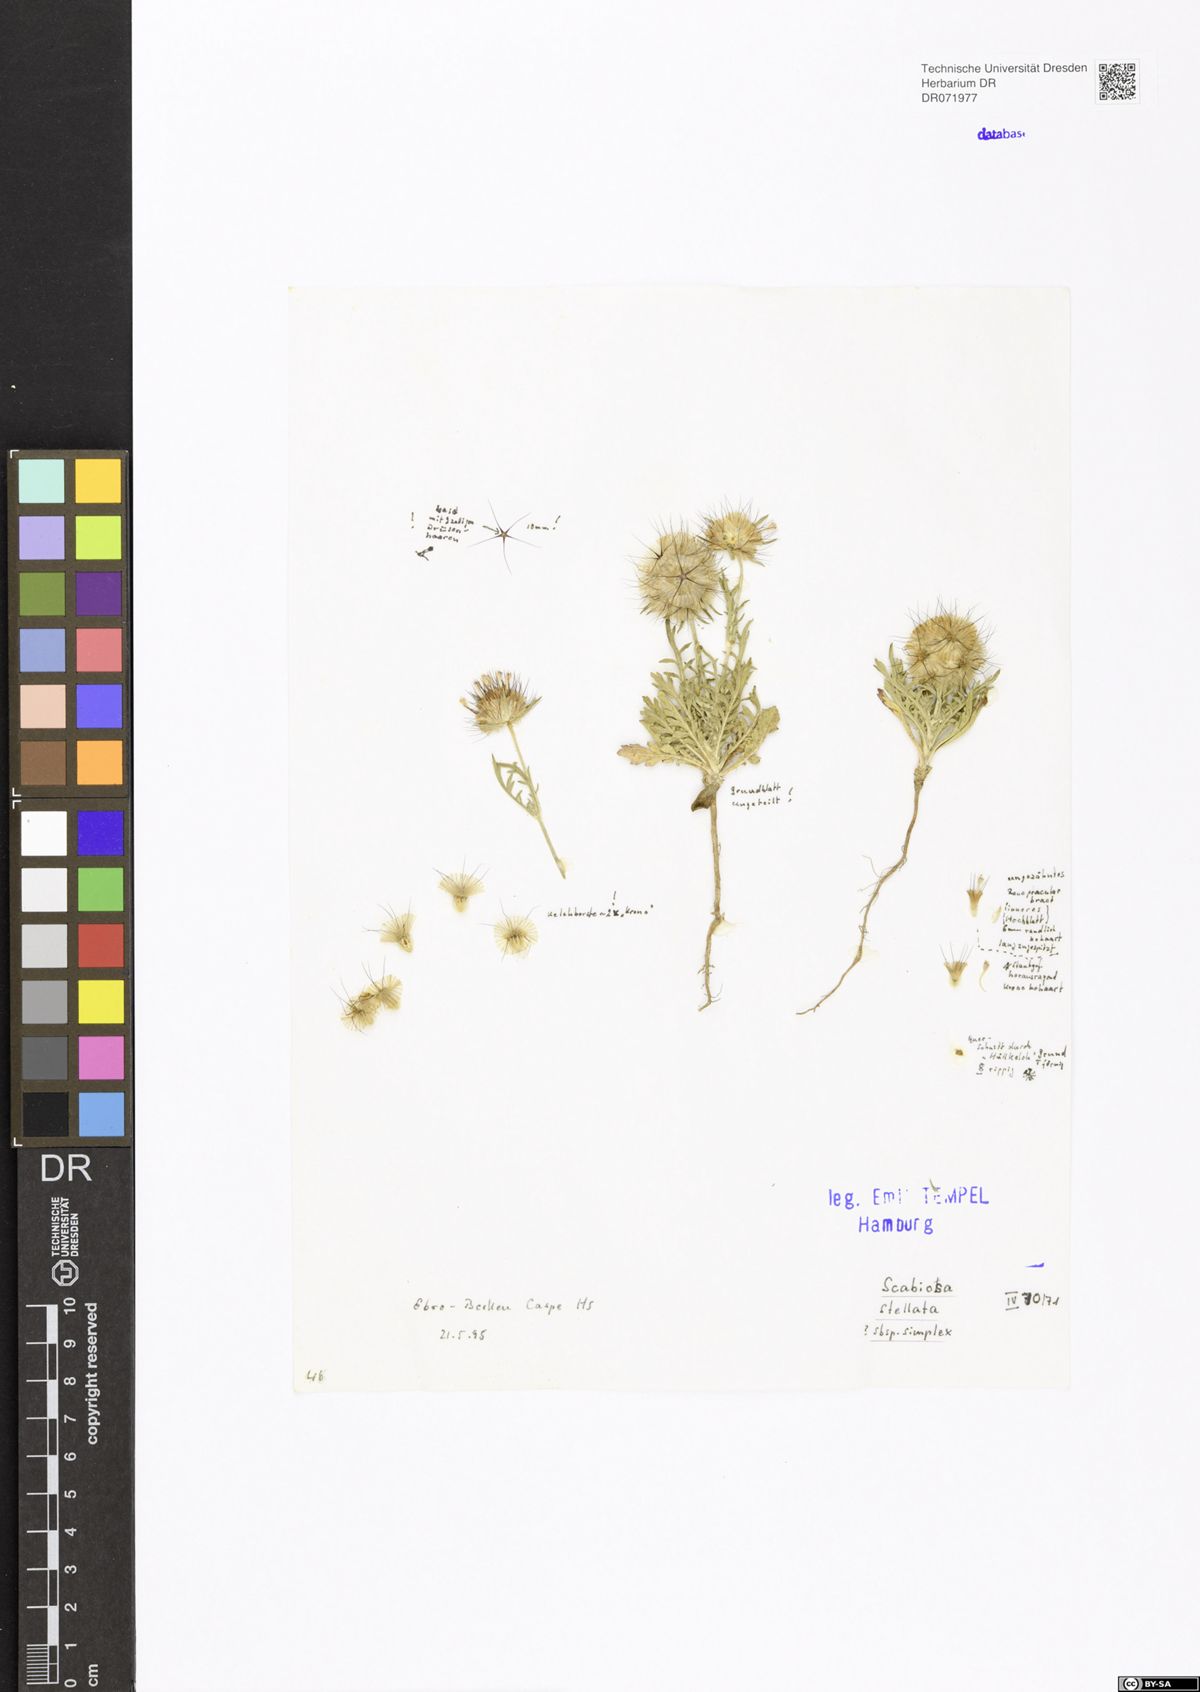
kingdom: Plantae
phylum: Tracheophyta
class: Magnoliopsida
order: Dipsacales
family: Caprifoliaceae
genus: Lomelosia
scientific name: Lomelosia stellata
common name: Teasel
